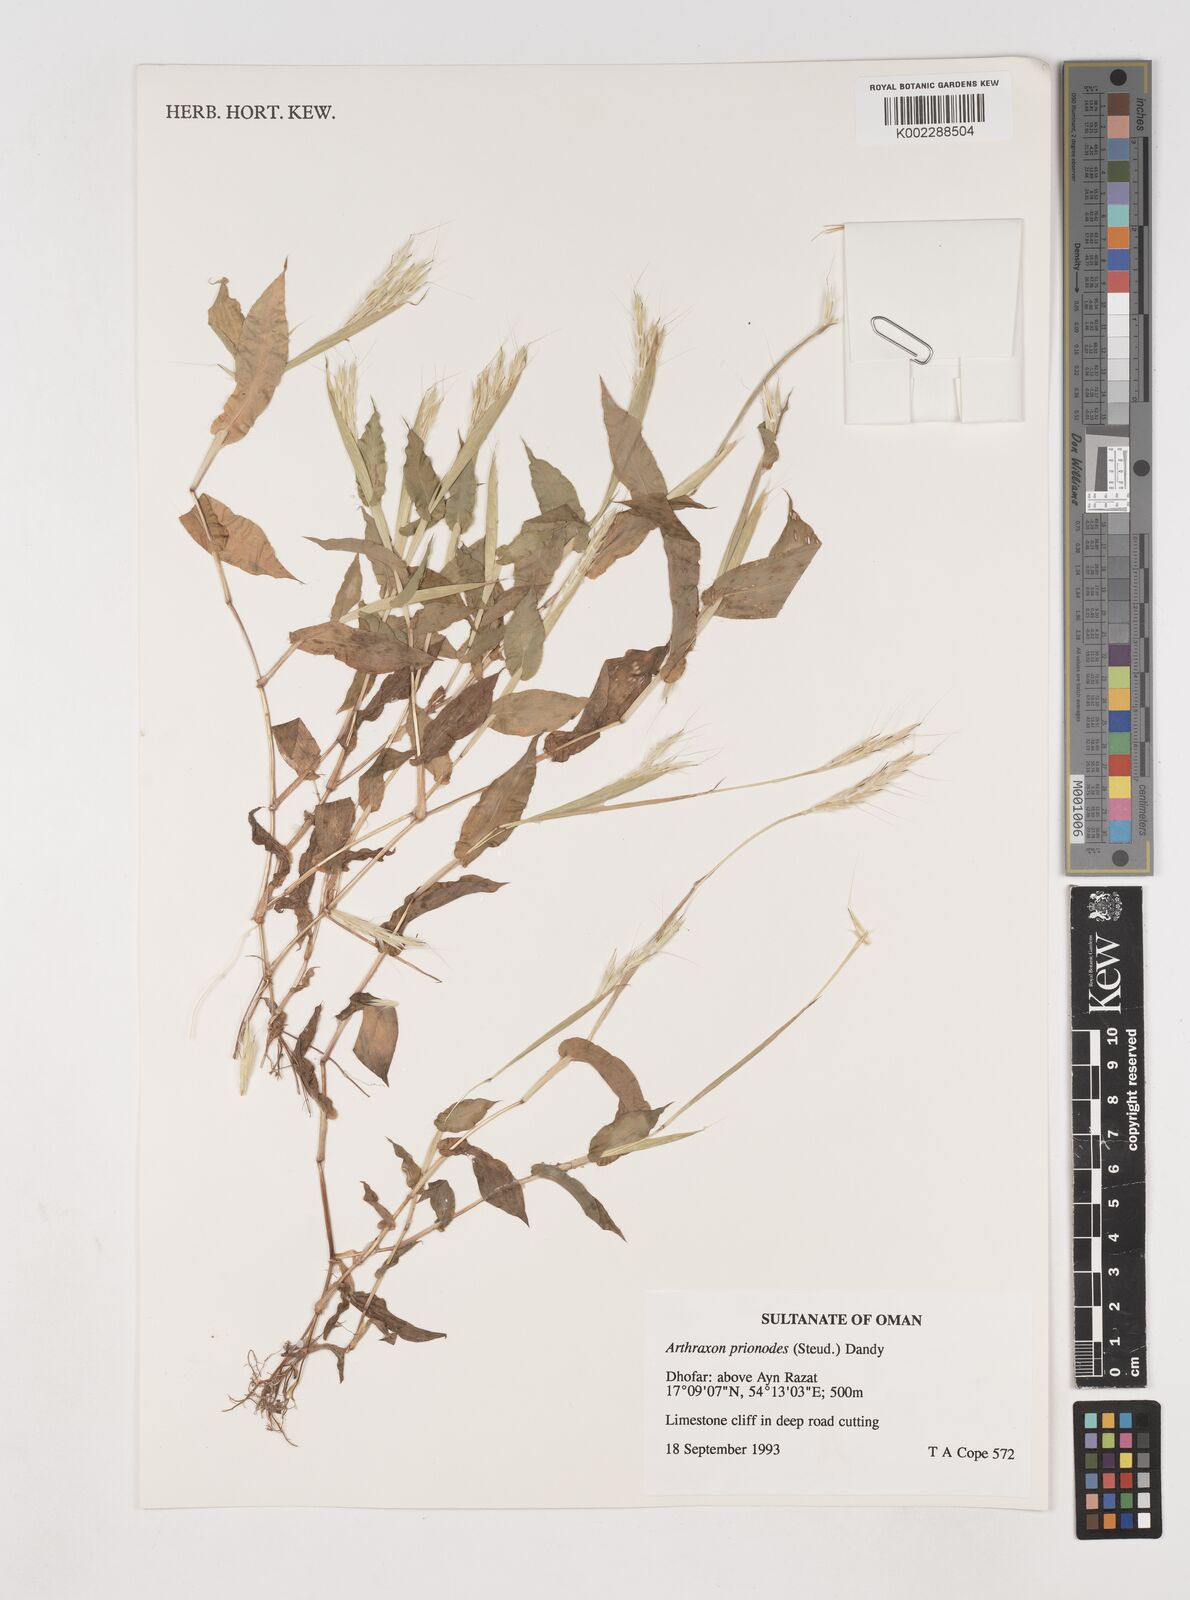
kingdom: Plantae
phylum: Tracheophyta
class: Liliopsida
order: Poales
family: Poaceae
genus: Arthraxon
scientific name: Arthraxon prionodes
